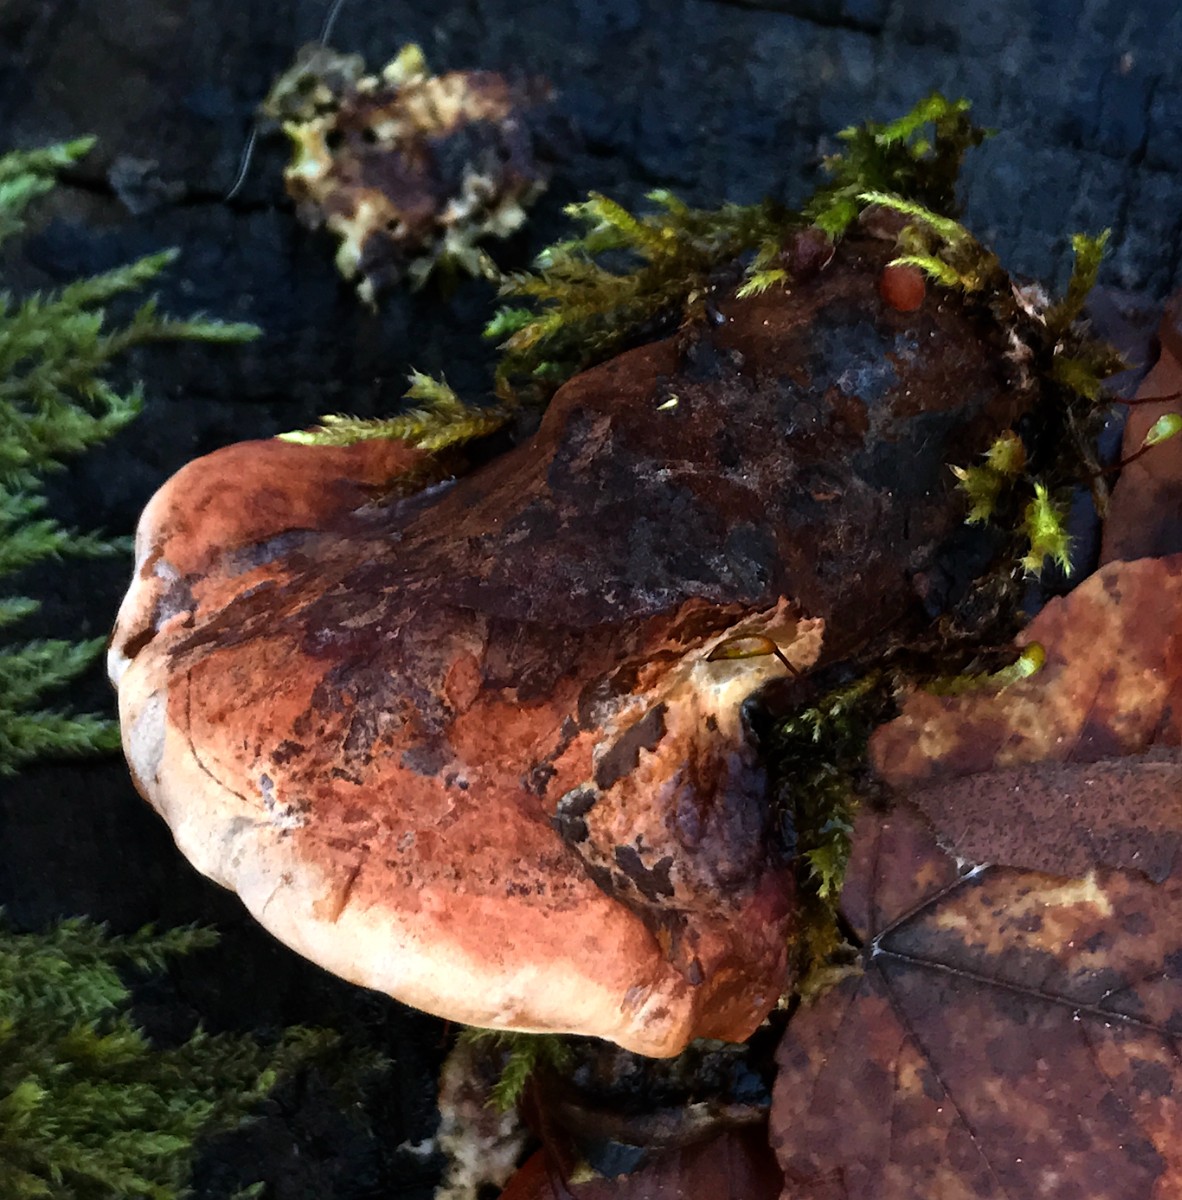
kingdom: Fungi
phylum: Basidiomycota
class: Agaricomycetes
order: Polyporales
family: Ischnodermataceae
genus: Ischnoderma
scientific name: Ischnoderma resinosum
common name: løv-tjæreporesvamp
